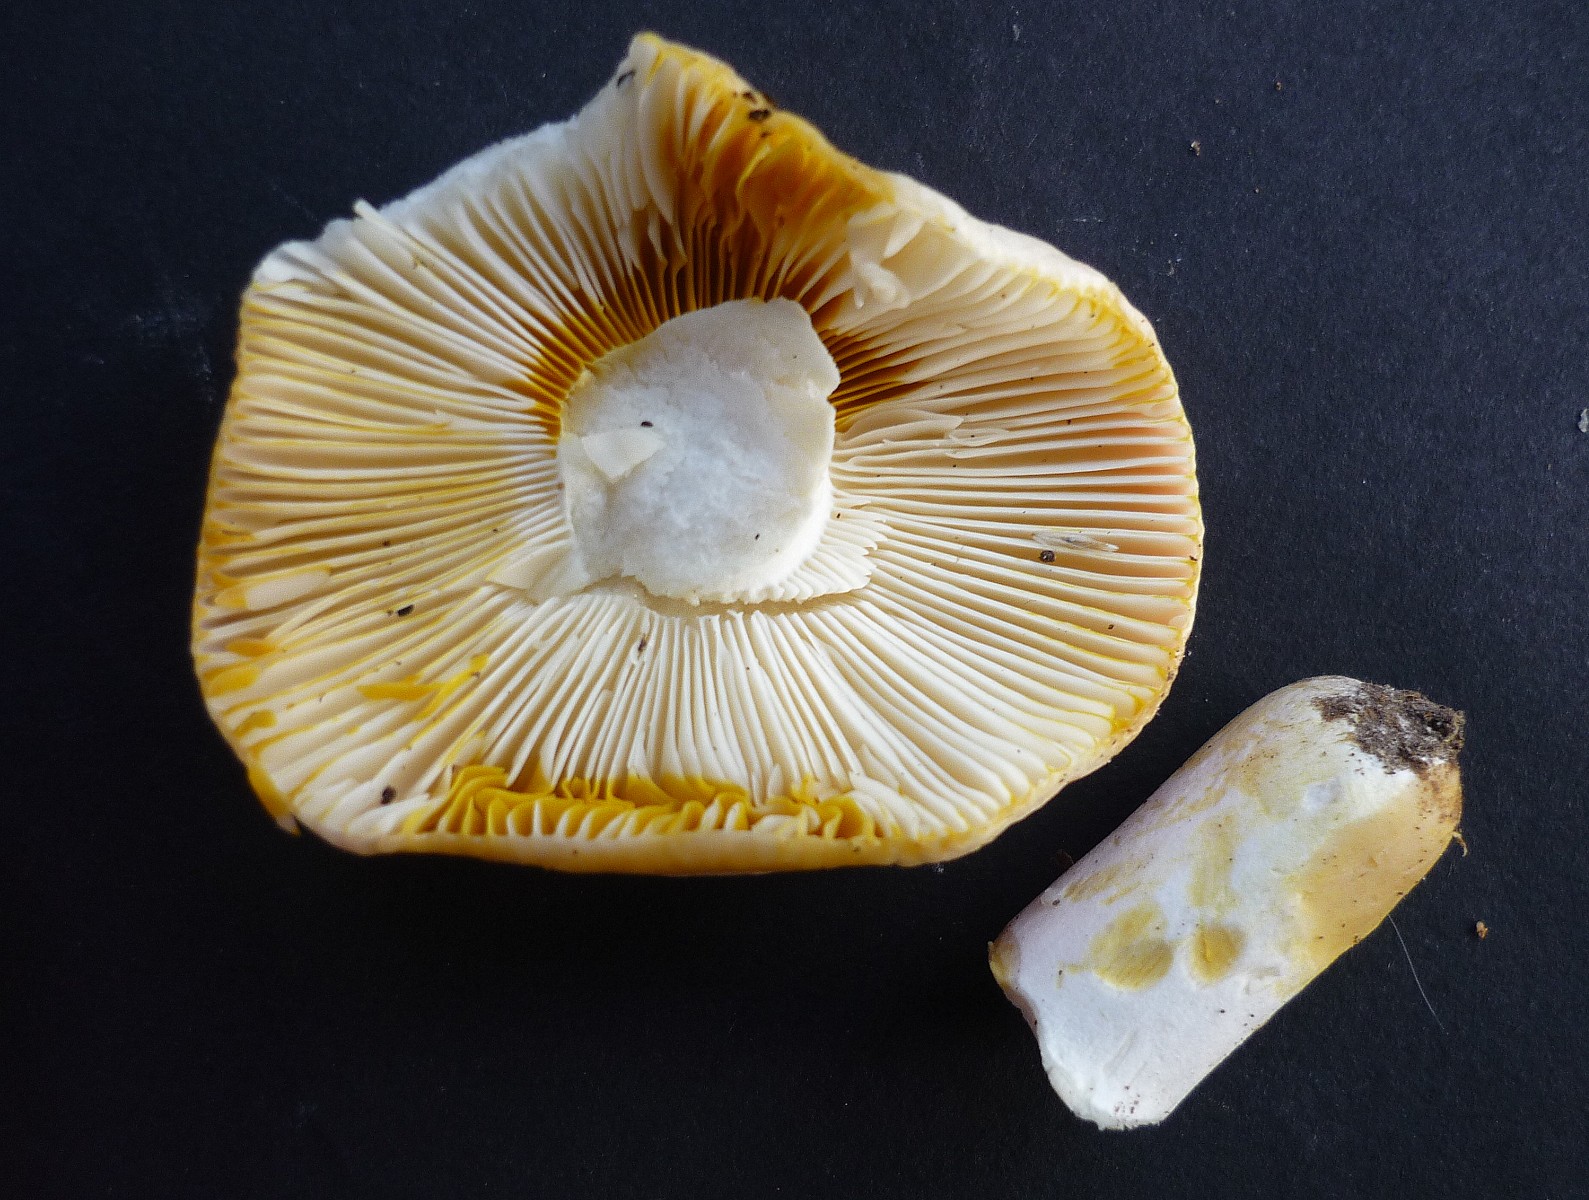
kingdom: Fungi
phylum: Basidiomycota
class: Agaricomycetes
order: Russulales
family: Russulaceae
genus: Russula
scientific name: Russula luteotacta
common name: gulplettet gift-skørhat
